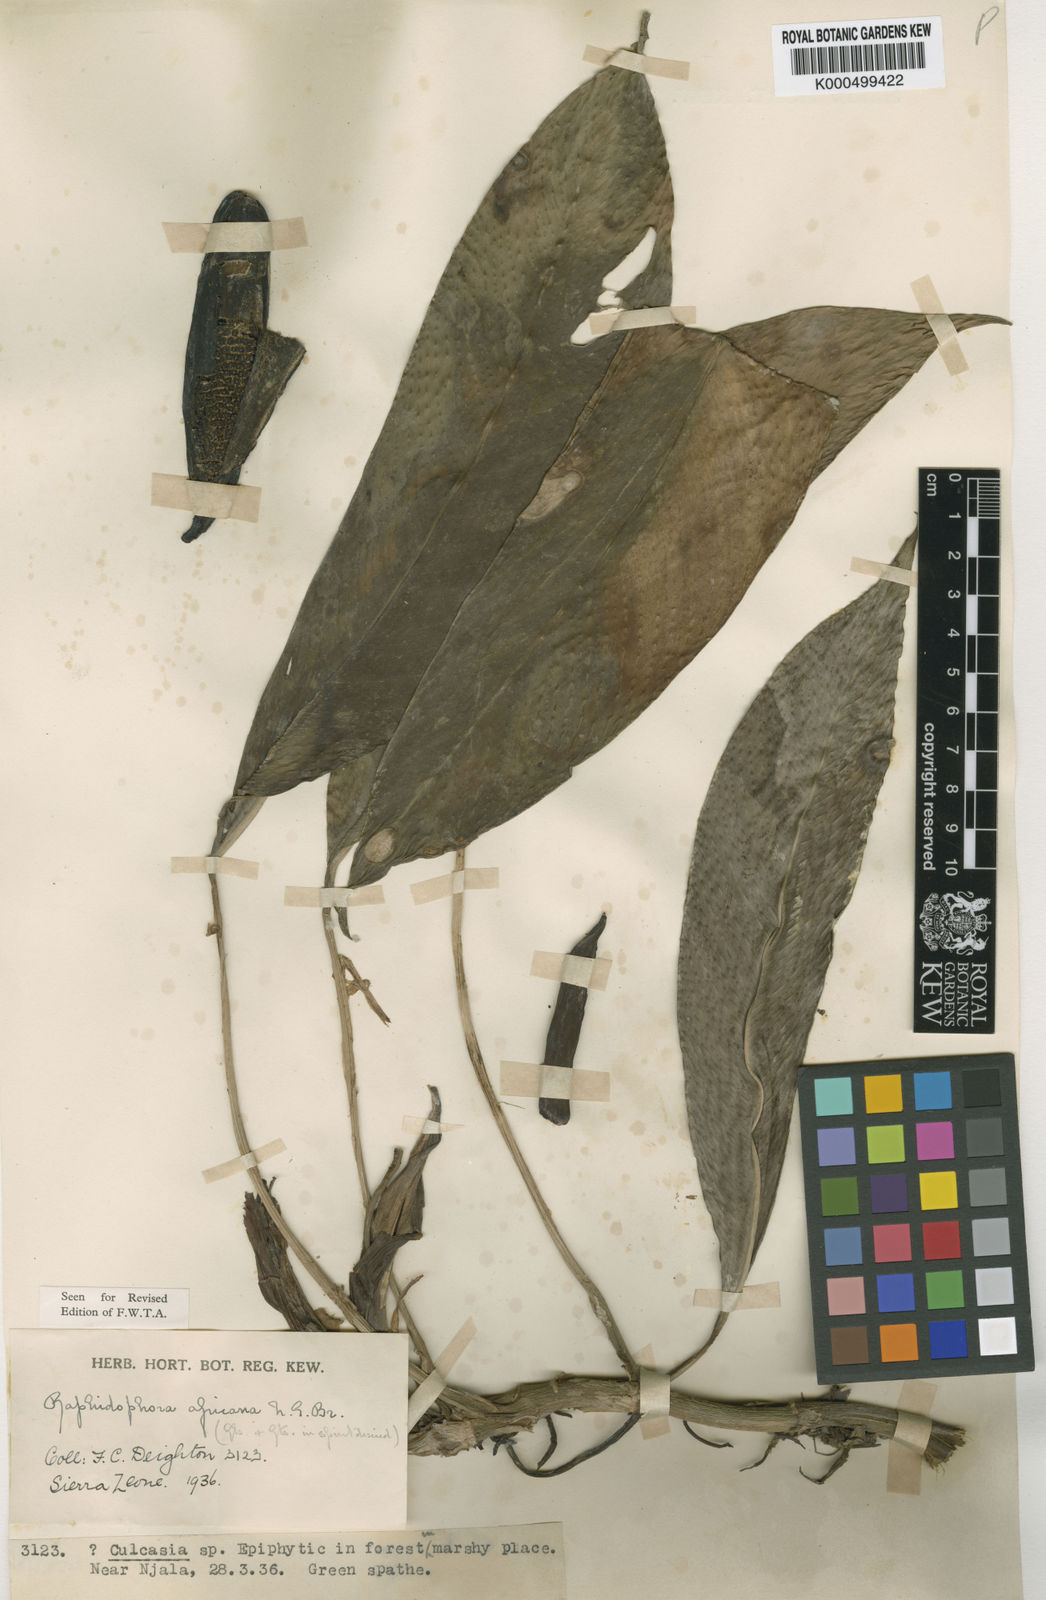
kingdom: Plantae
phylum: Tracheophyta
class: Liliopsida
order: Alismatales
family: Araceae
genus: Rhaphidophora
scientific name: Rhaphidophora africana
